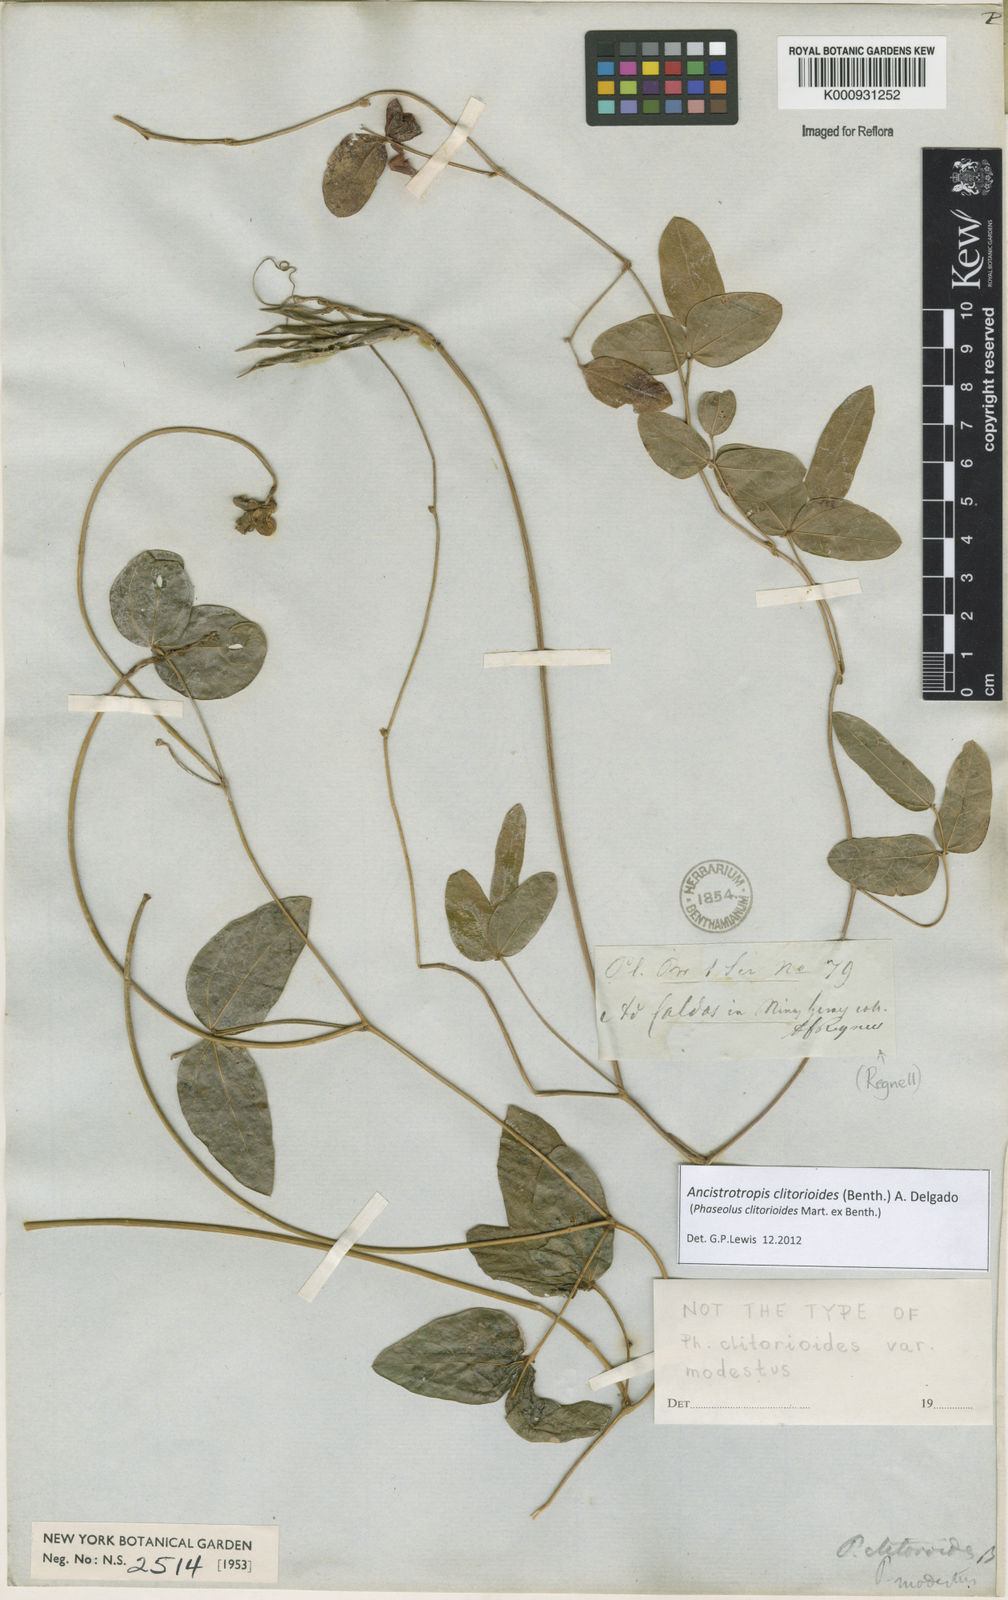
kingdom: Plantae
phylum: Tracheophyta
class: Magnoliopsida
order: Fabales
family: Fabaceae
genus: Ancistrotropis
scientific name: Ancistrotropis clitorioides
